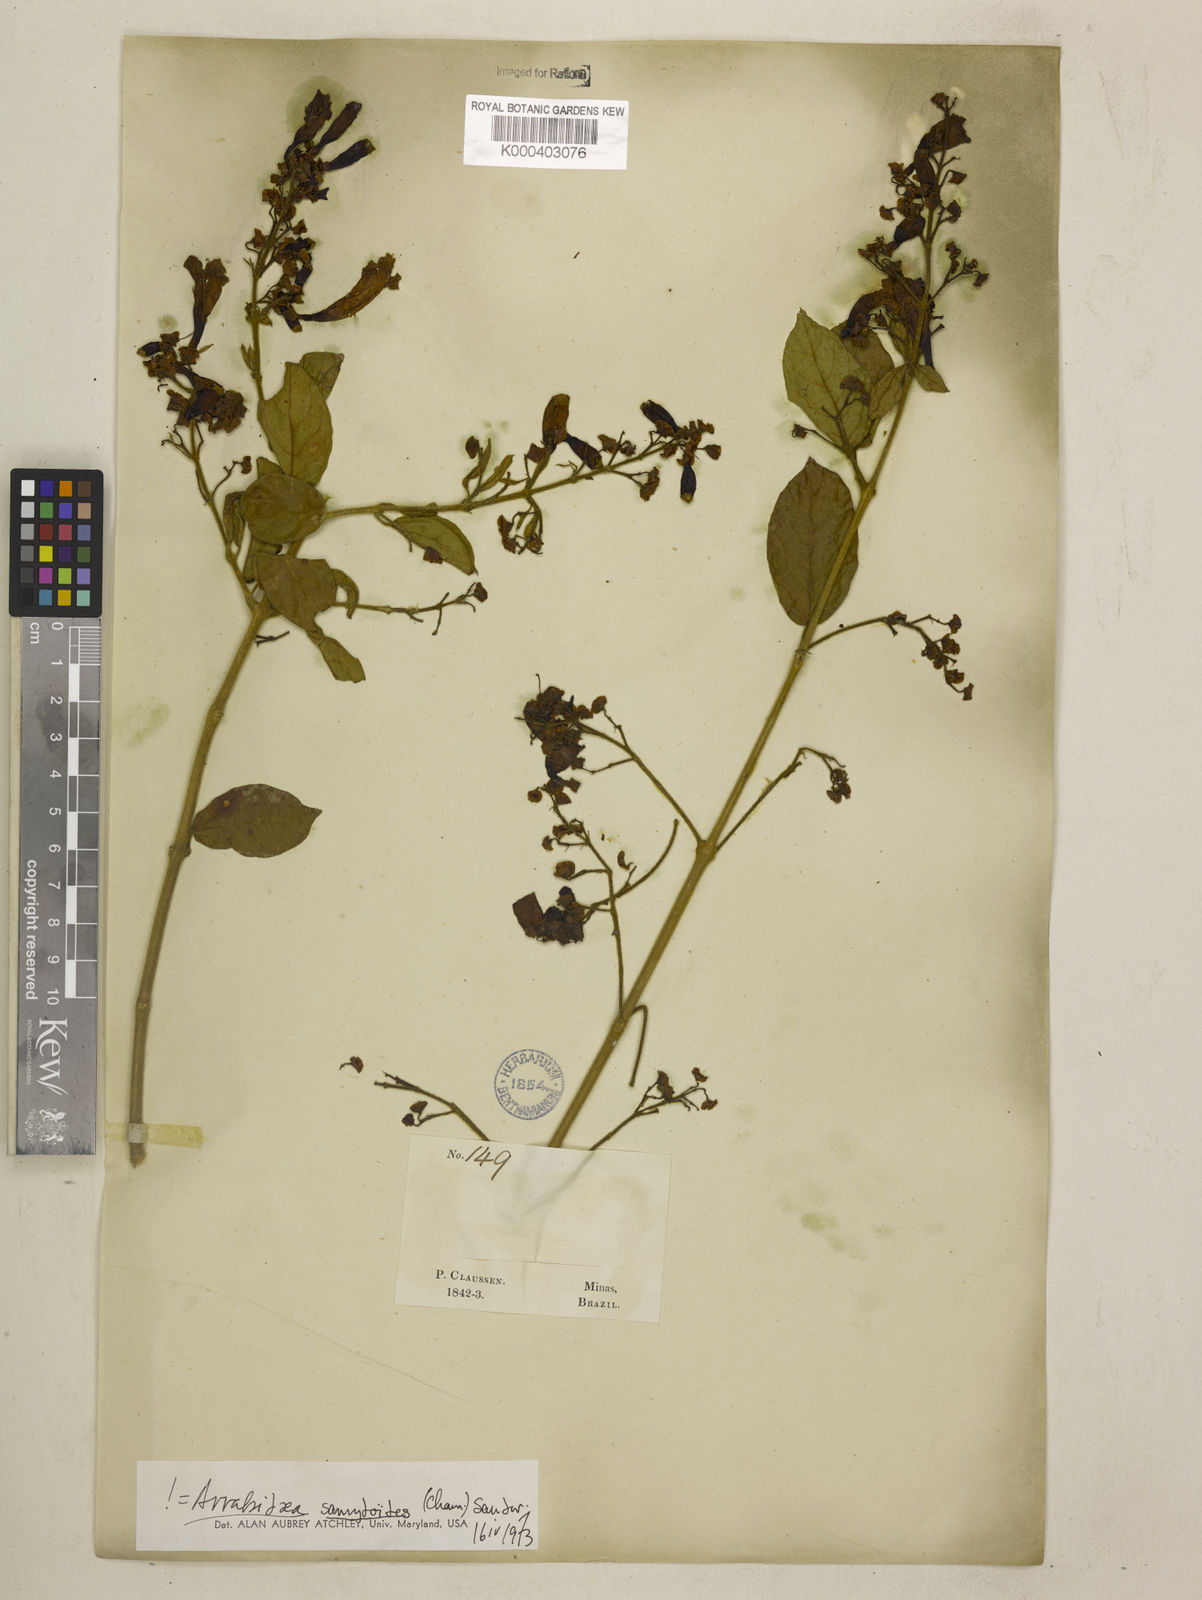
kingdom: Plantae
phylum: Tracheophyta
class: Magnoliopsida
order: Lamiales
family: Bignoniaceae
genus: Fridericia
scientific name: Fridericia samydoides
